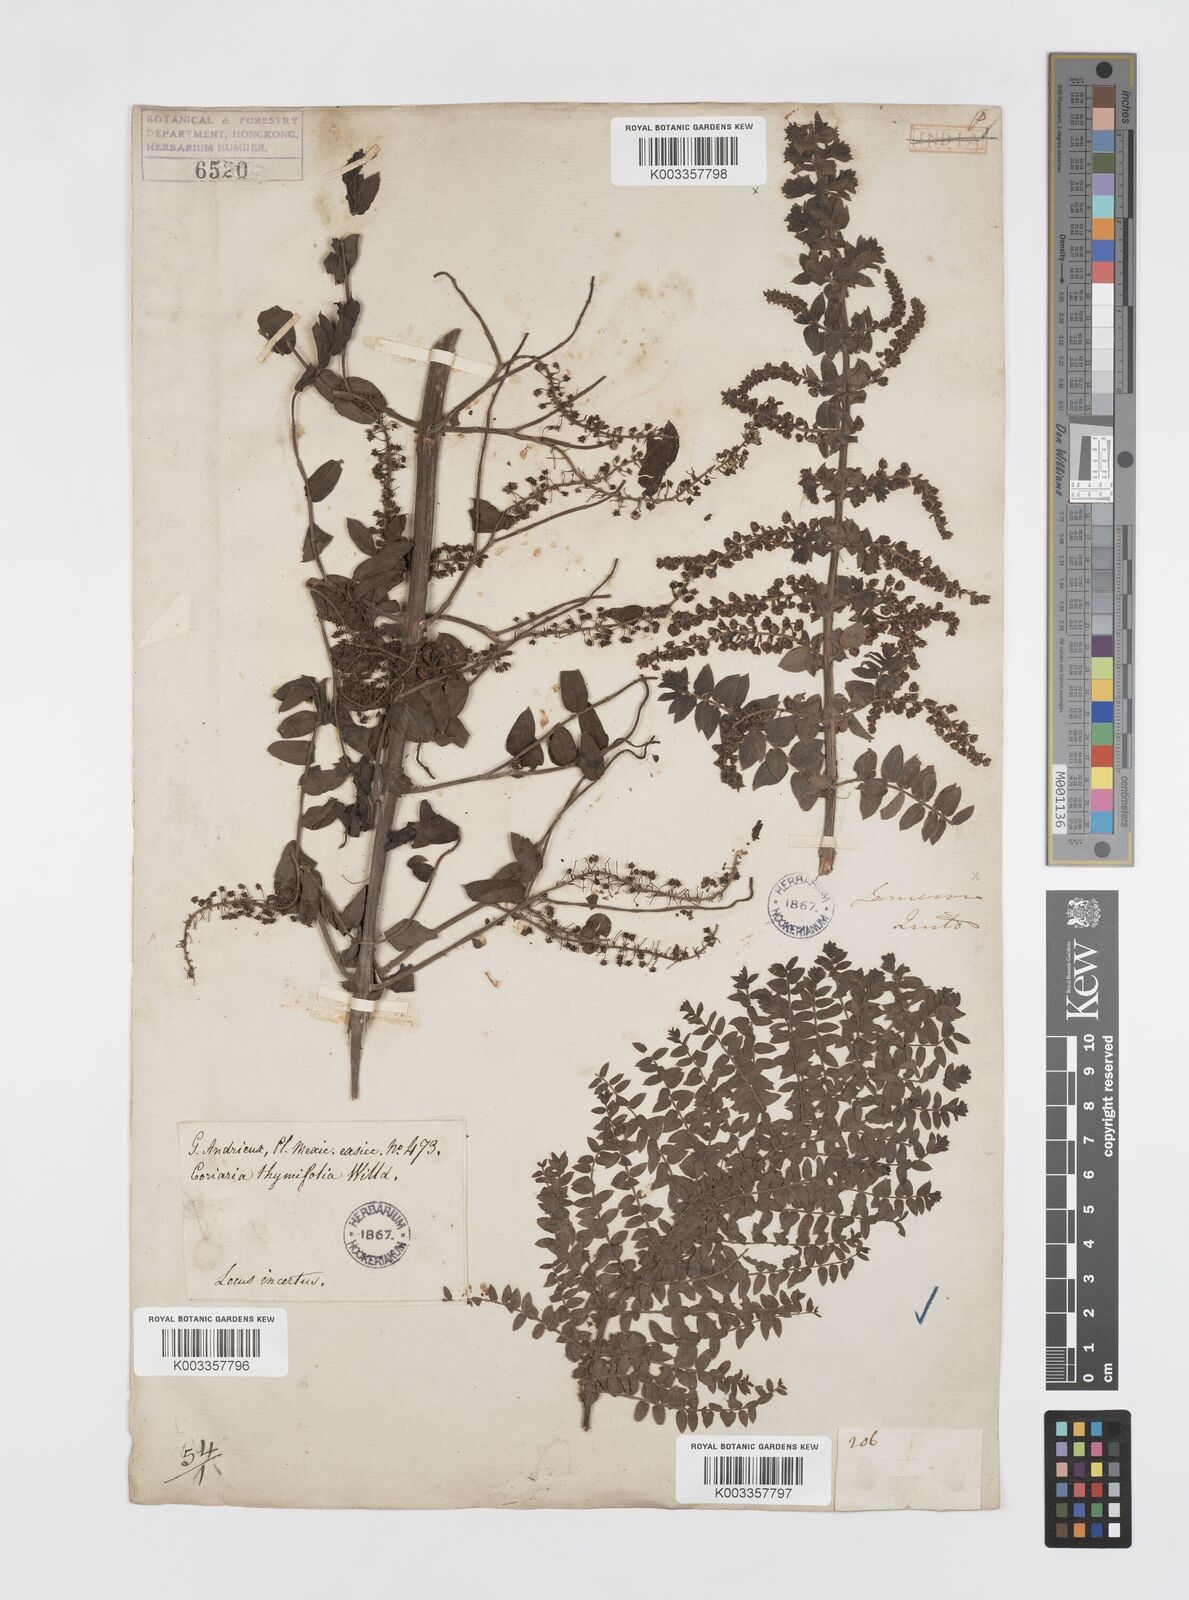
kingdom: Plantae
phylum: Tracheophyta
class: Magnoliopsida
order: Cucurbitales
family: Coriariaceae
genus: Coriaria
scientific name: Coriaria microphylla
